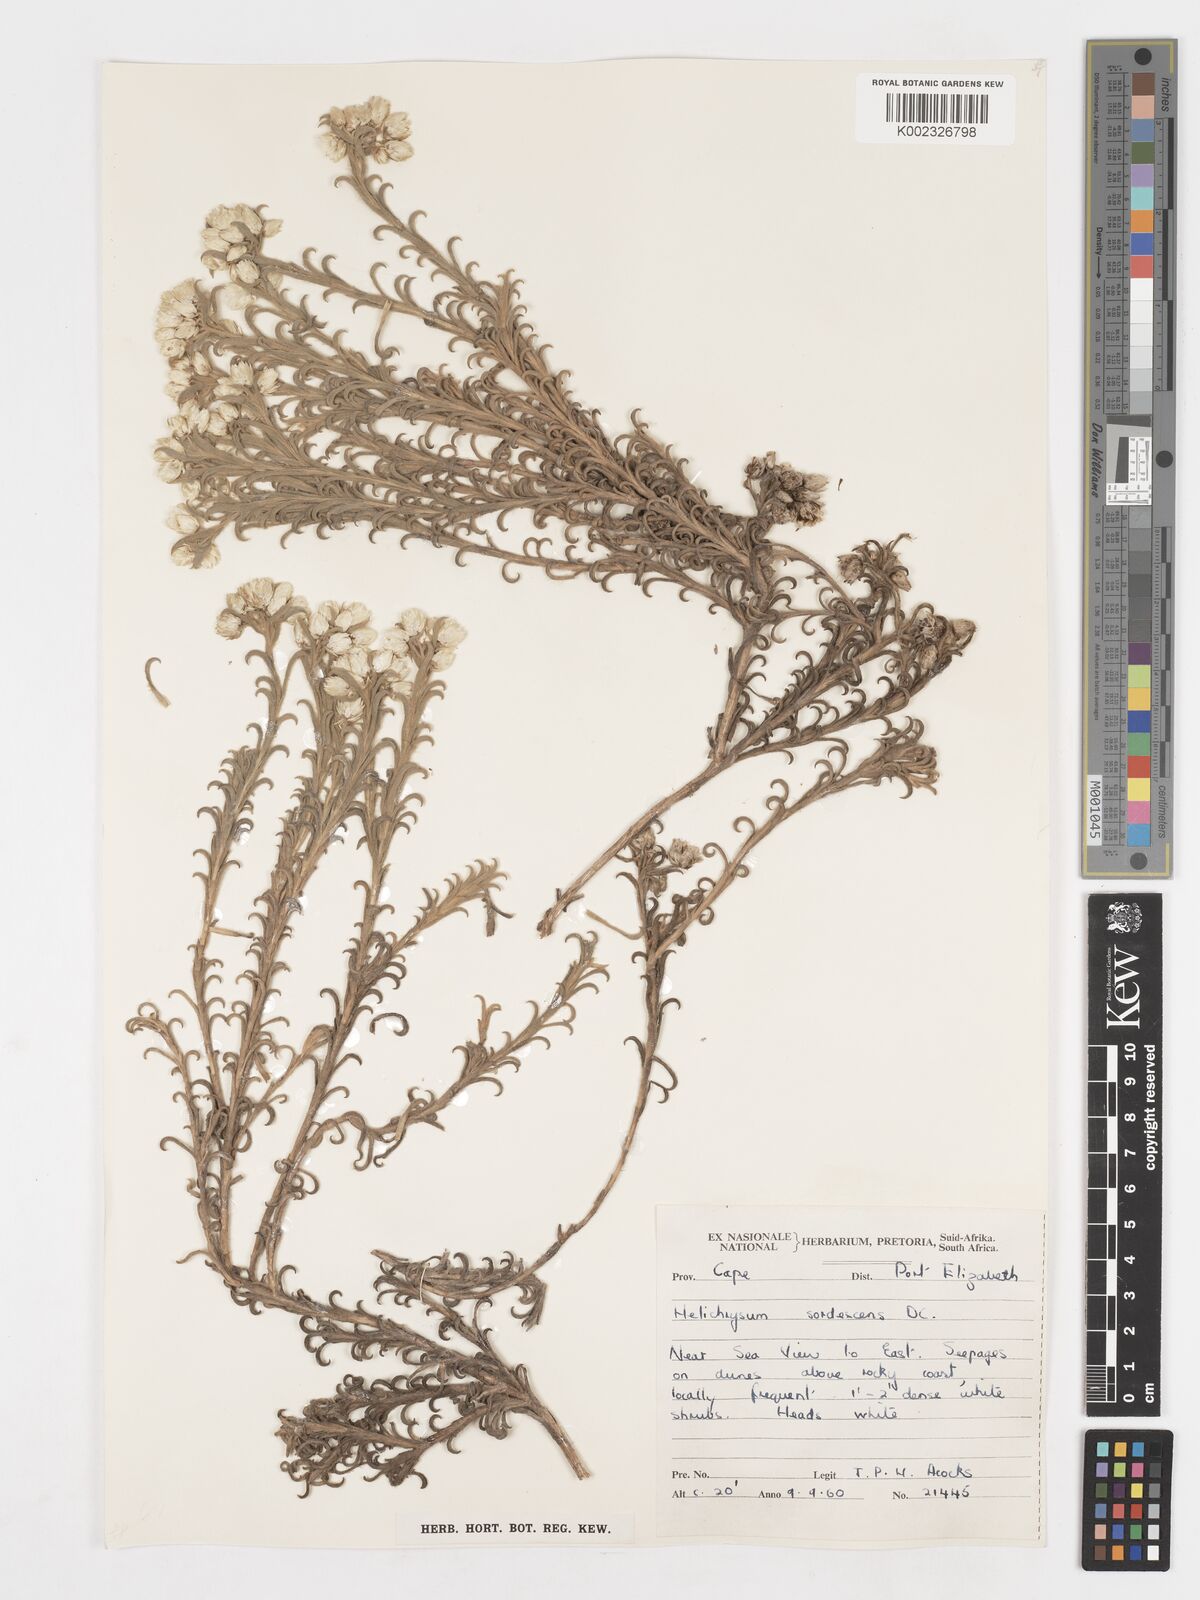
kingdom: Plantae
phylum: Tracheophyta
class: Magnoliopsida
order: Asterales
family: Asteraceae
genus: Achyranthemum
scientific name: Achyranthemum sordescens
